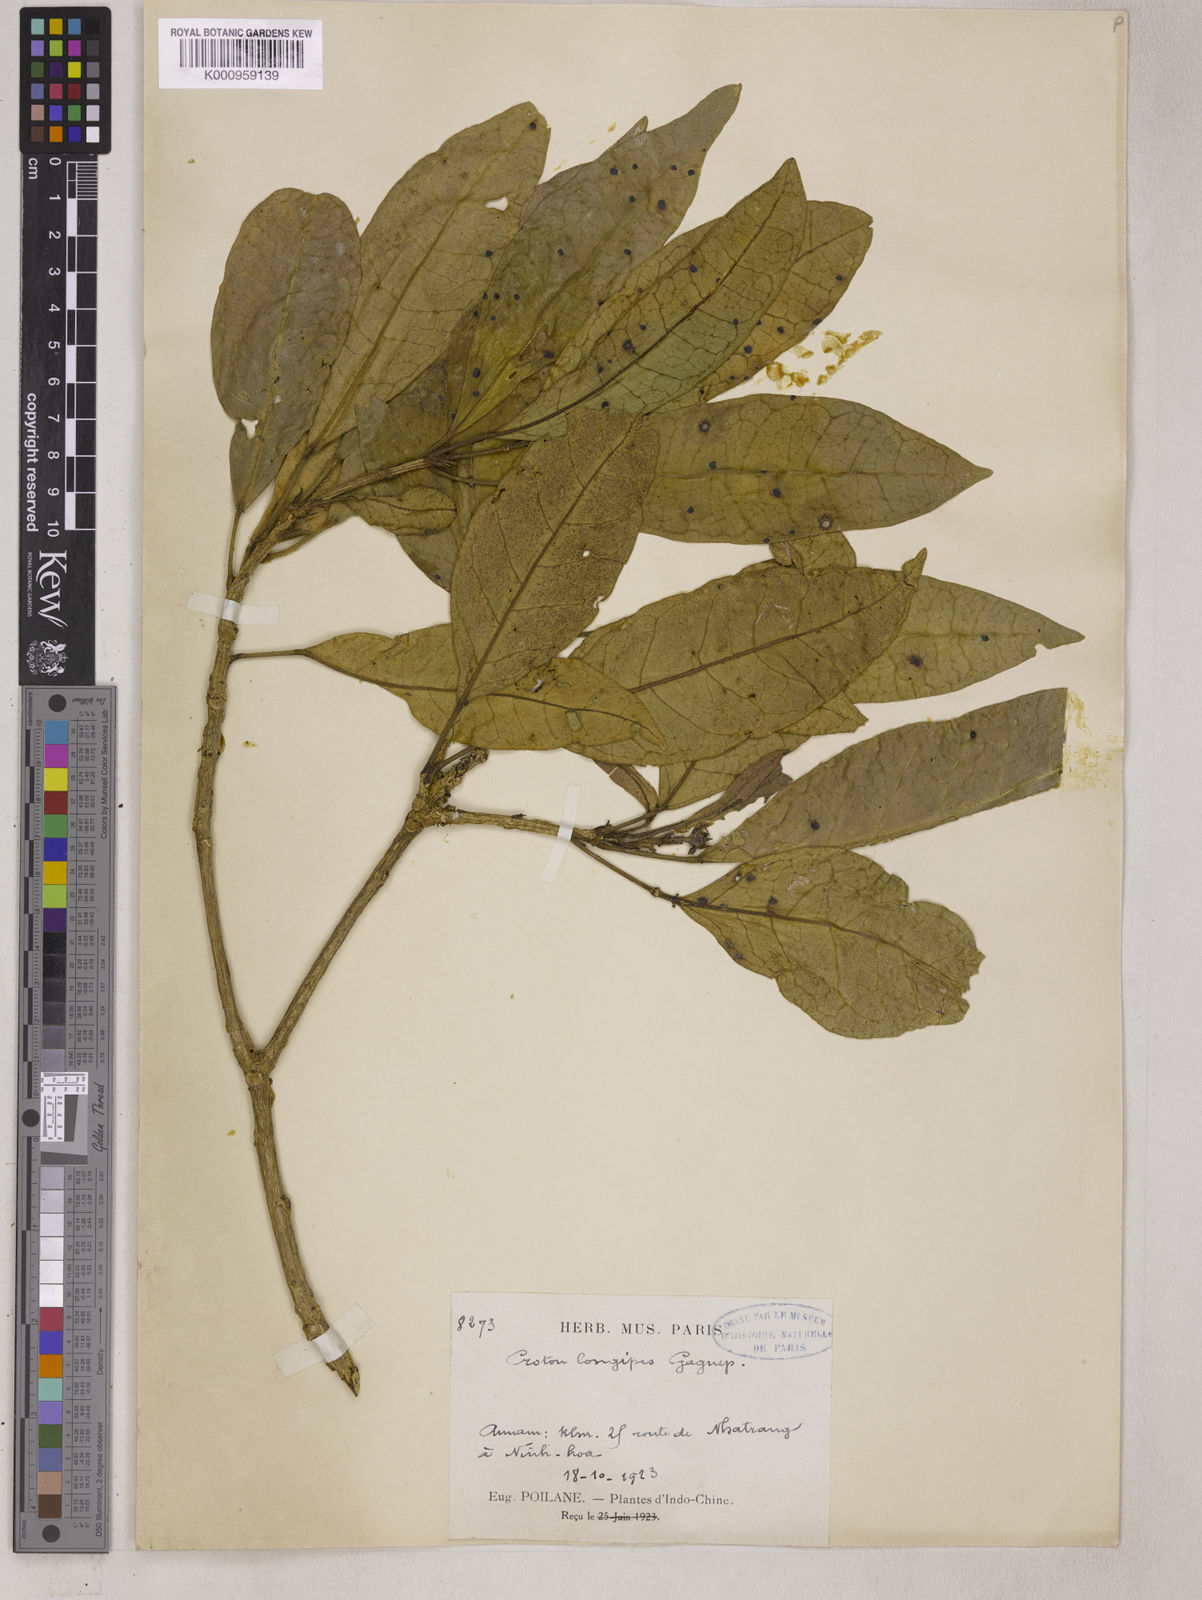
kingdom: Plantae
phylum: Tracheophyta
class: Magnoliopsida
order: Malpighiales
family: Euphorbiaceae
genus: Croton
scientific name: Croton vietnamensis
